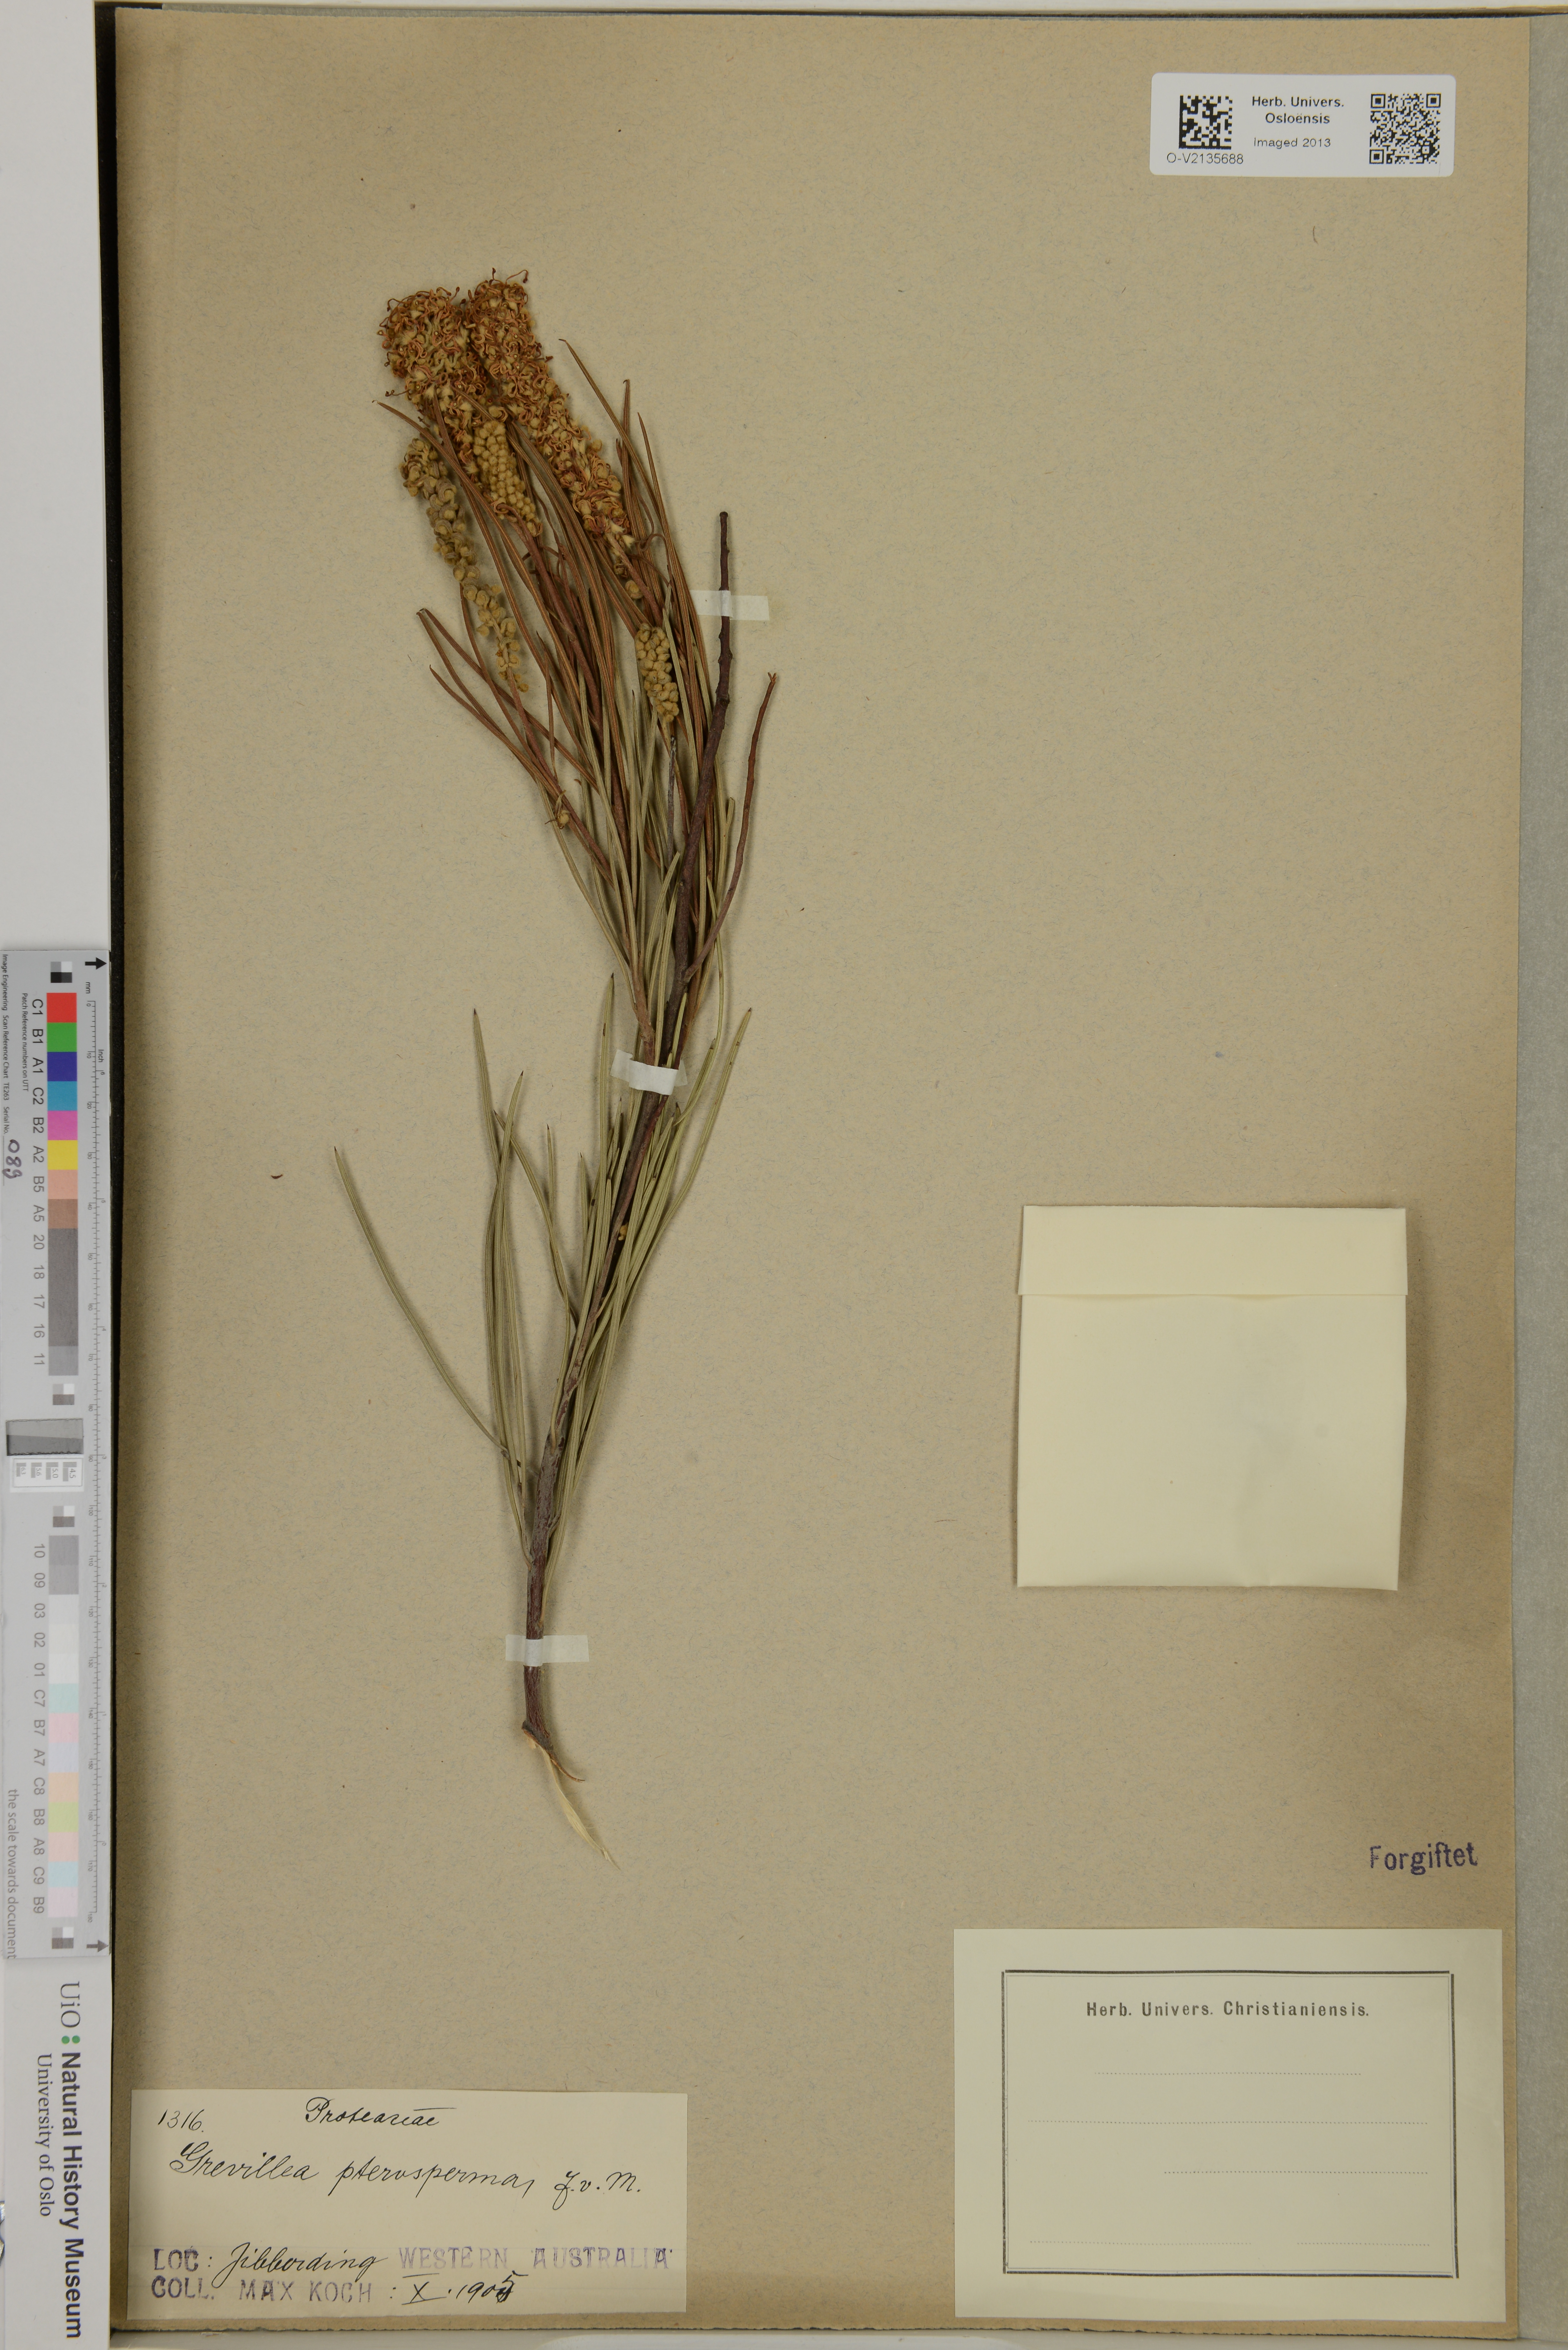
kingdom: Plantae
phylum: Tracheophyta
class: Magnoliopsida
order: Proteales
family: Proteaceae
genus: Grevillea
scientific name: Grevillea pterosperma
